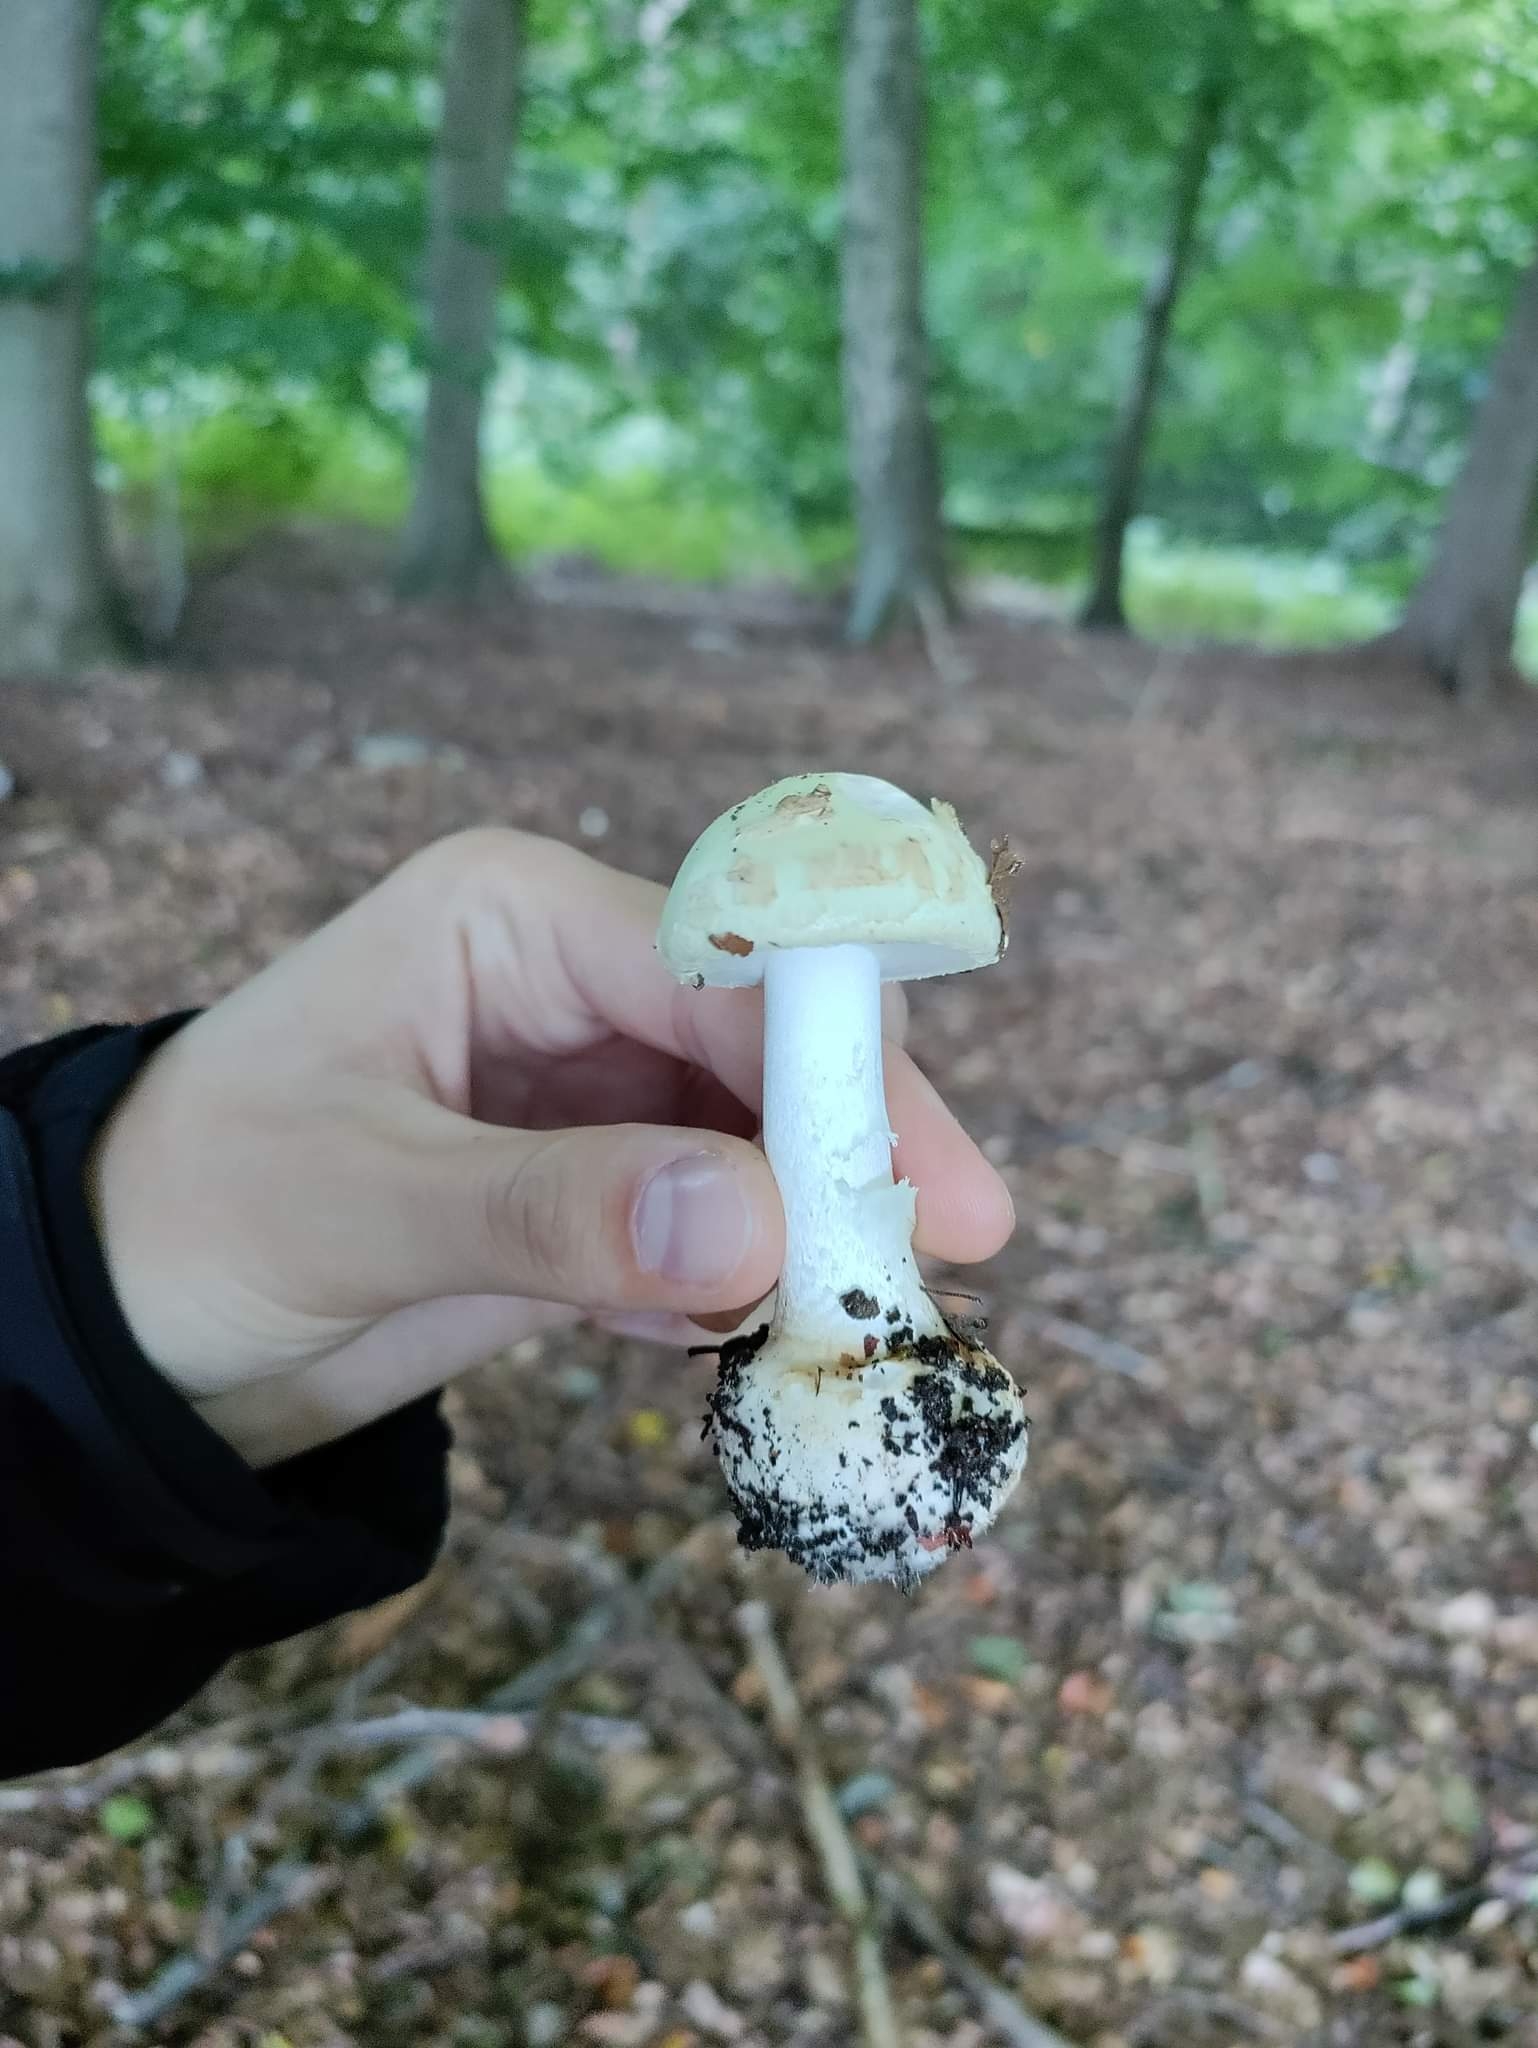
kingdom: Fungi
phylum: Basidiomycota
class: Agaricomycetes
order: Agaricales
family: Amanitaceae
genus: Amanita
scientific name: Amanita citrina
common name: kugleknoldet fluesvamp
